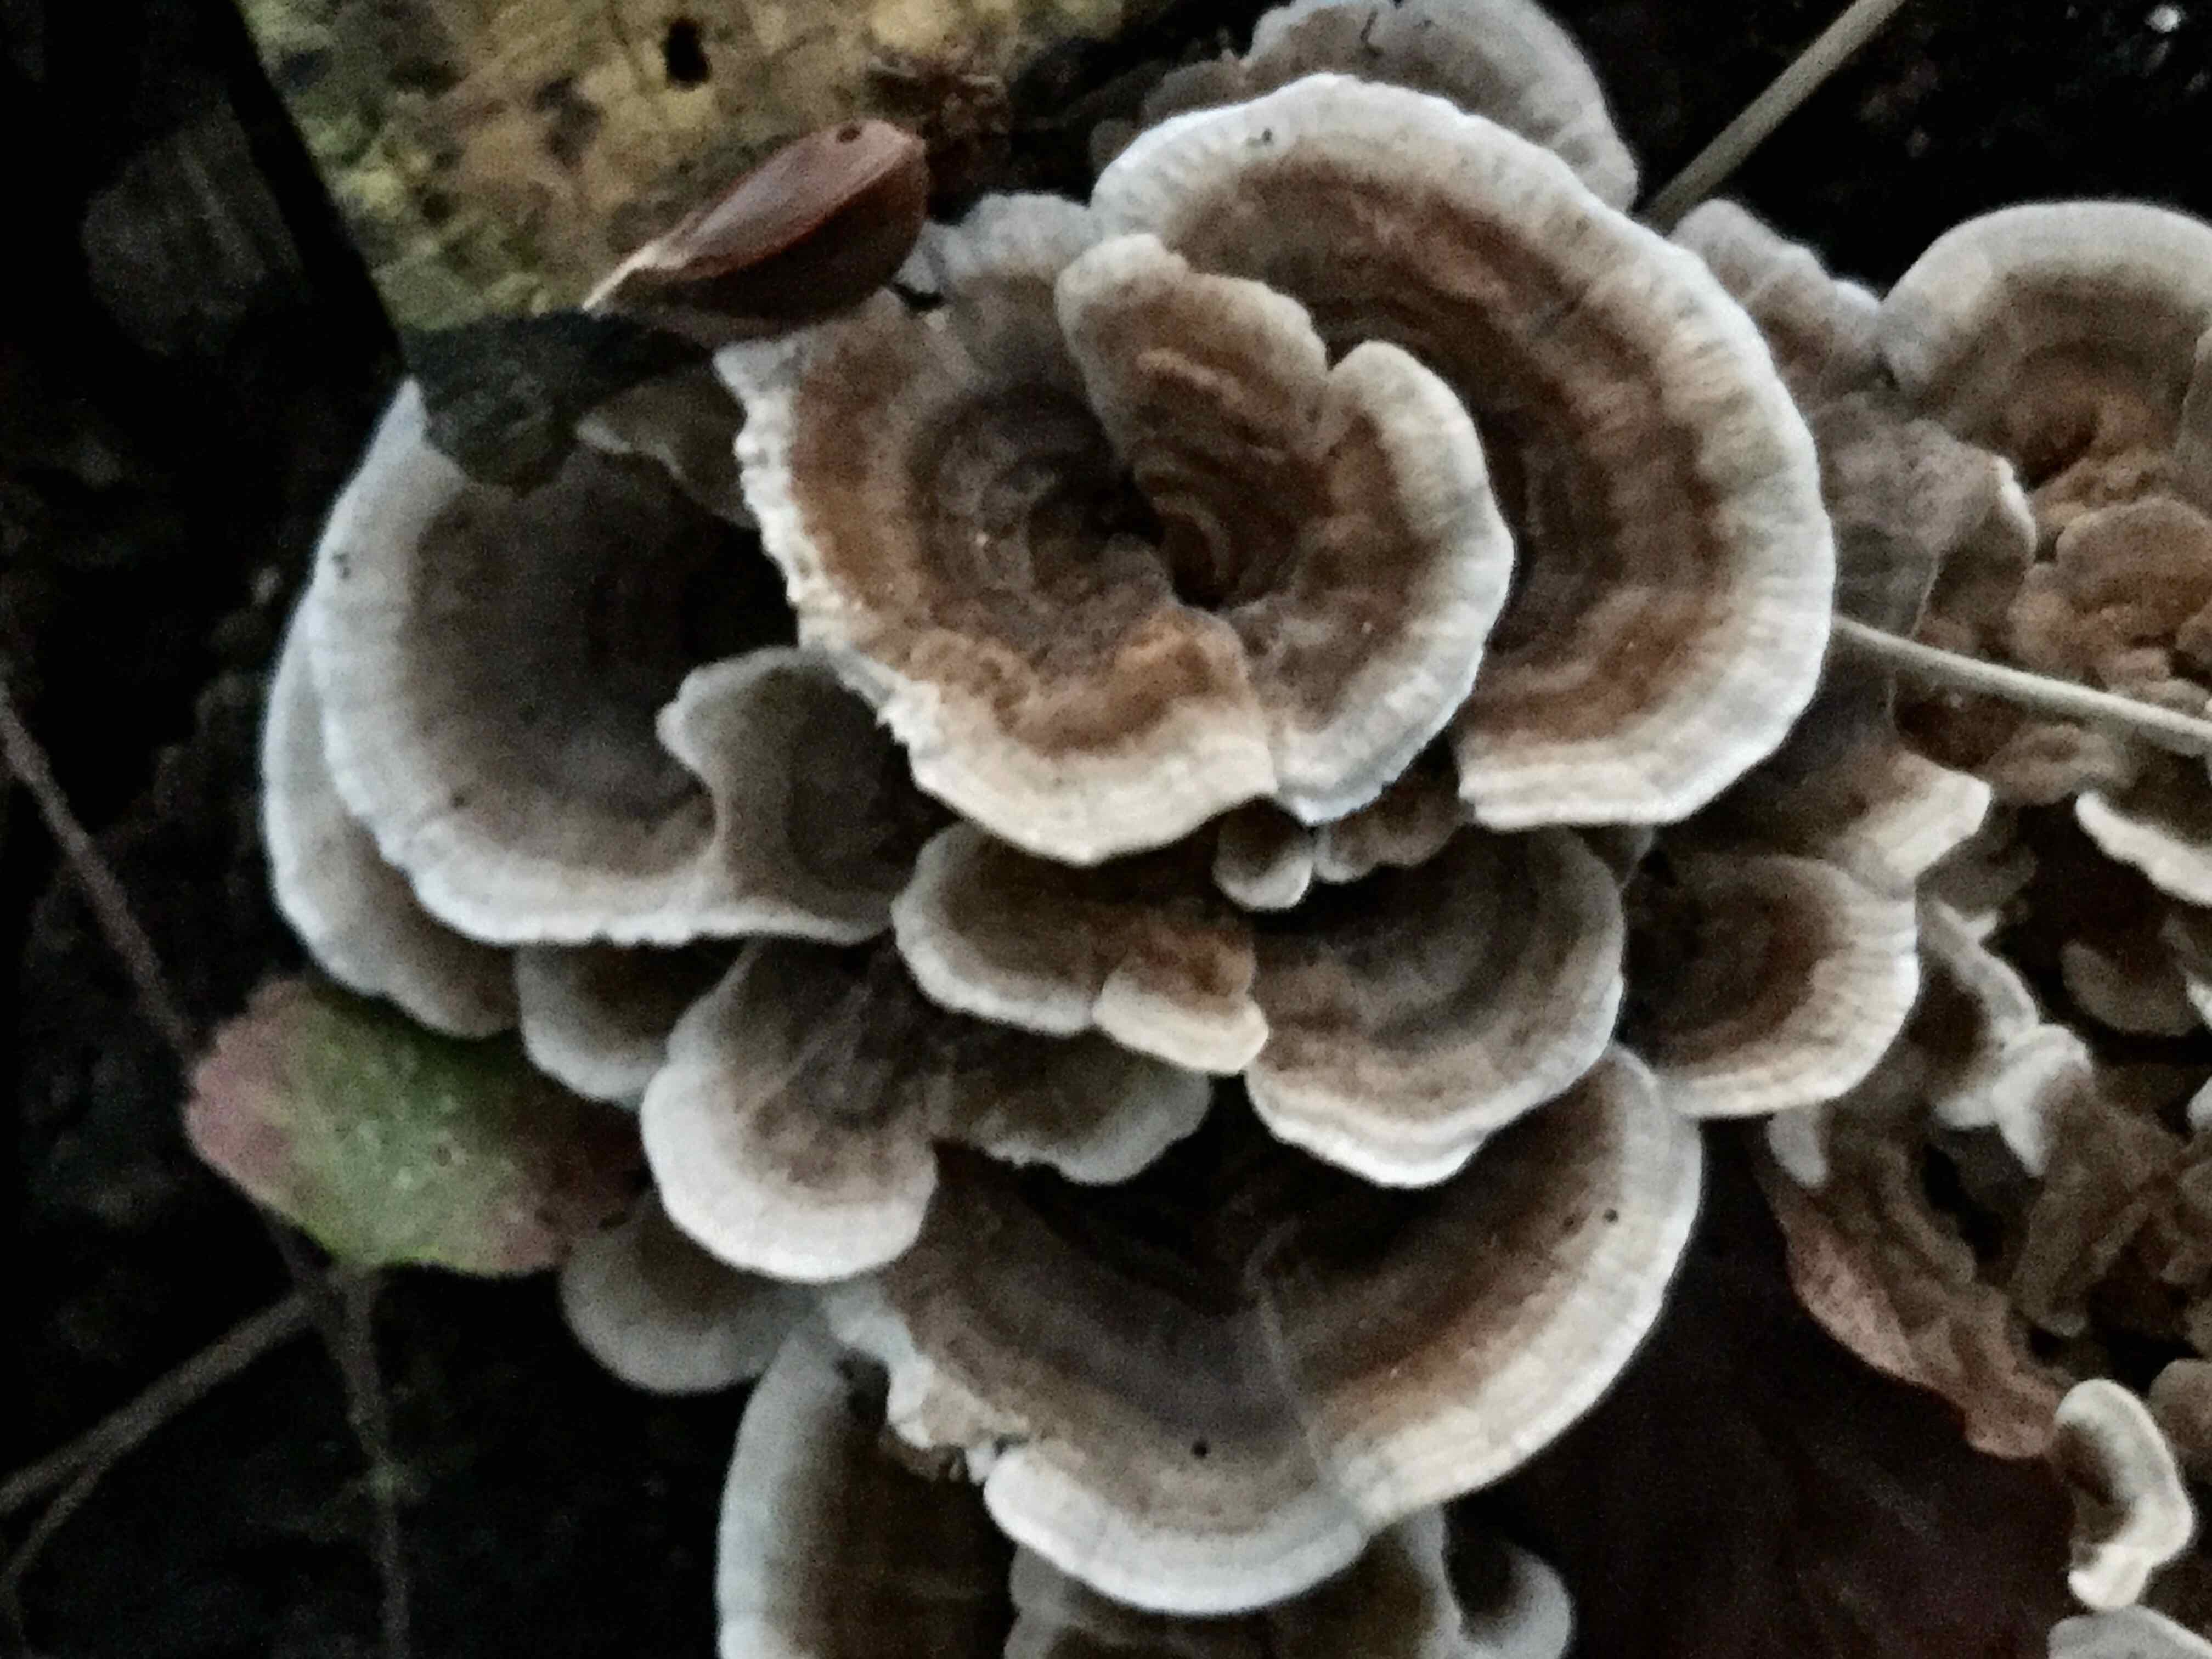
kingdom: Fungi
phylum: Basidiomycota
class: Agaricomycetes
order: Polyporales
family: Polyporaceae
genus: Trametes
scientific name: Trametes versicolor
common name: broget læderporesvamp
